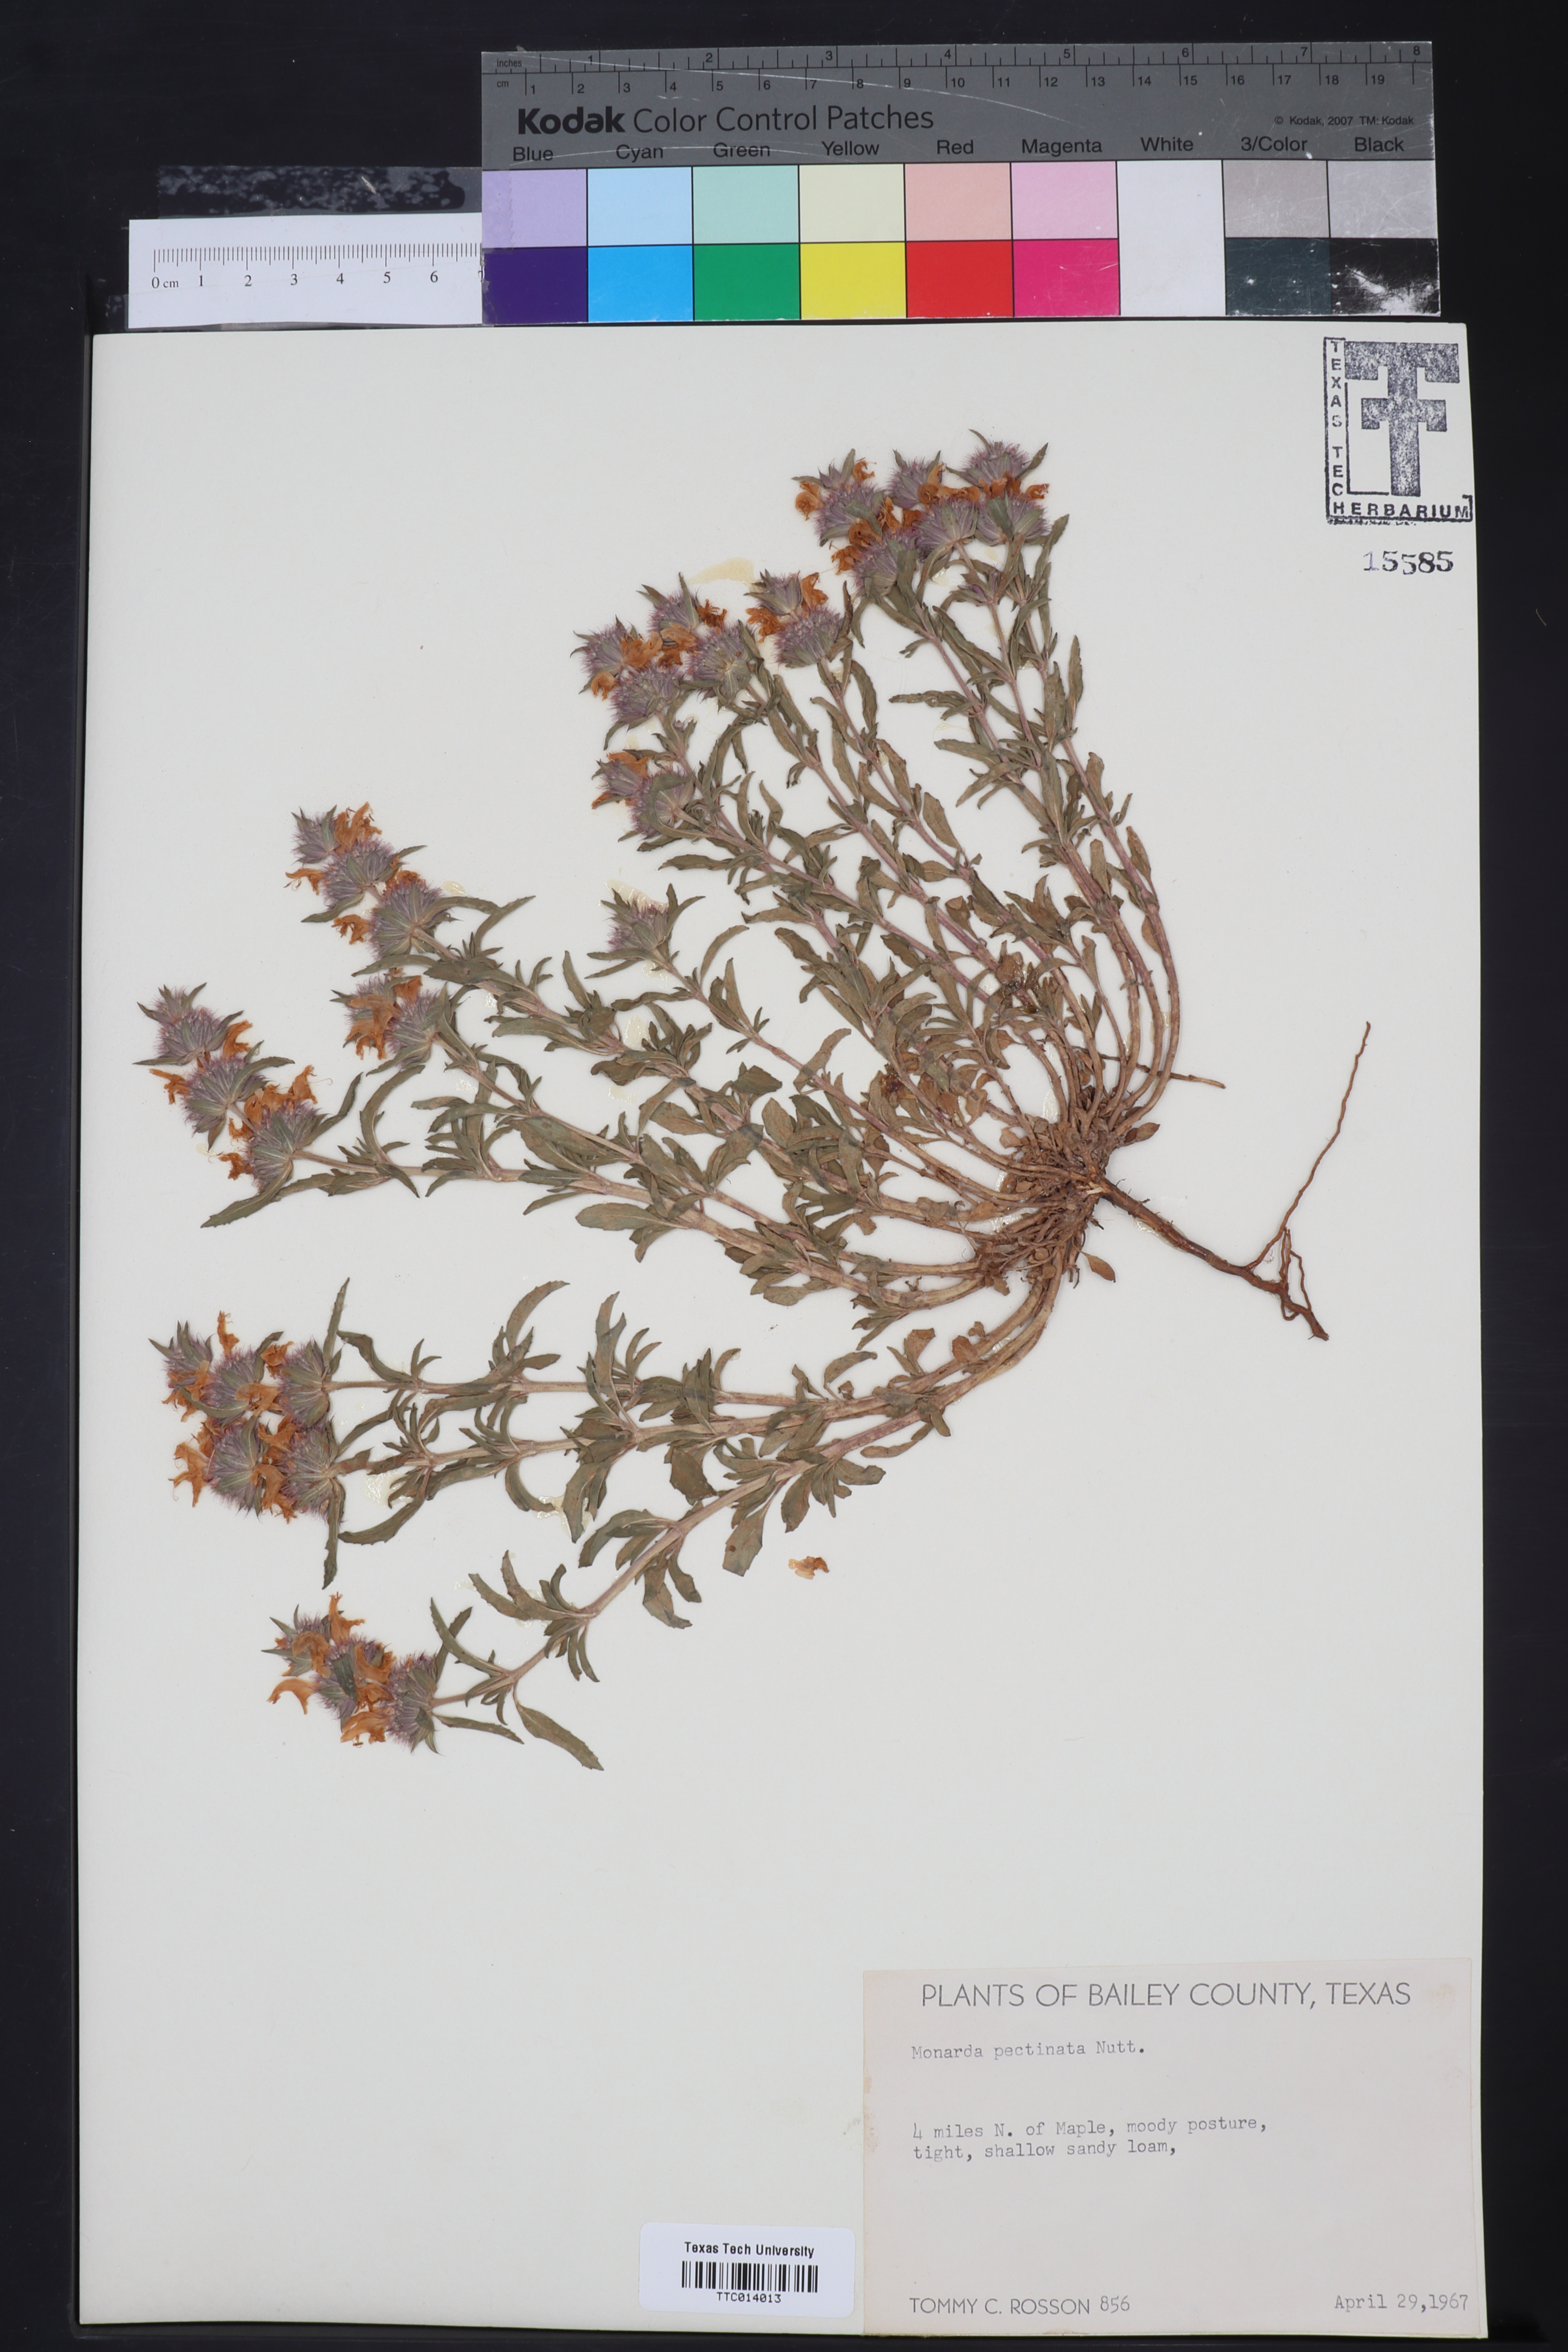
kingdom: Plantae
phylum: Tracheophyta
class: Magnoliopsida
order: Lamiales
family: Lamiaceae
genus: Monarda
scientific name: Monarda pectinata
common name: Plains beebalm
